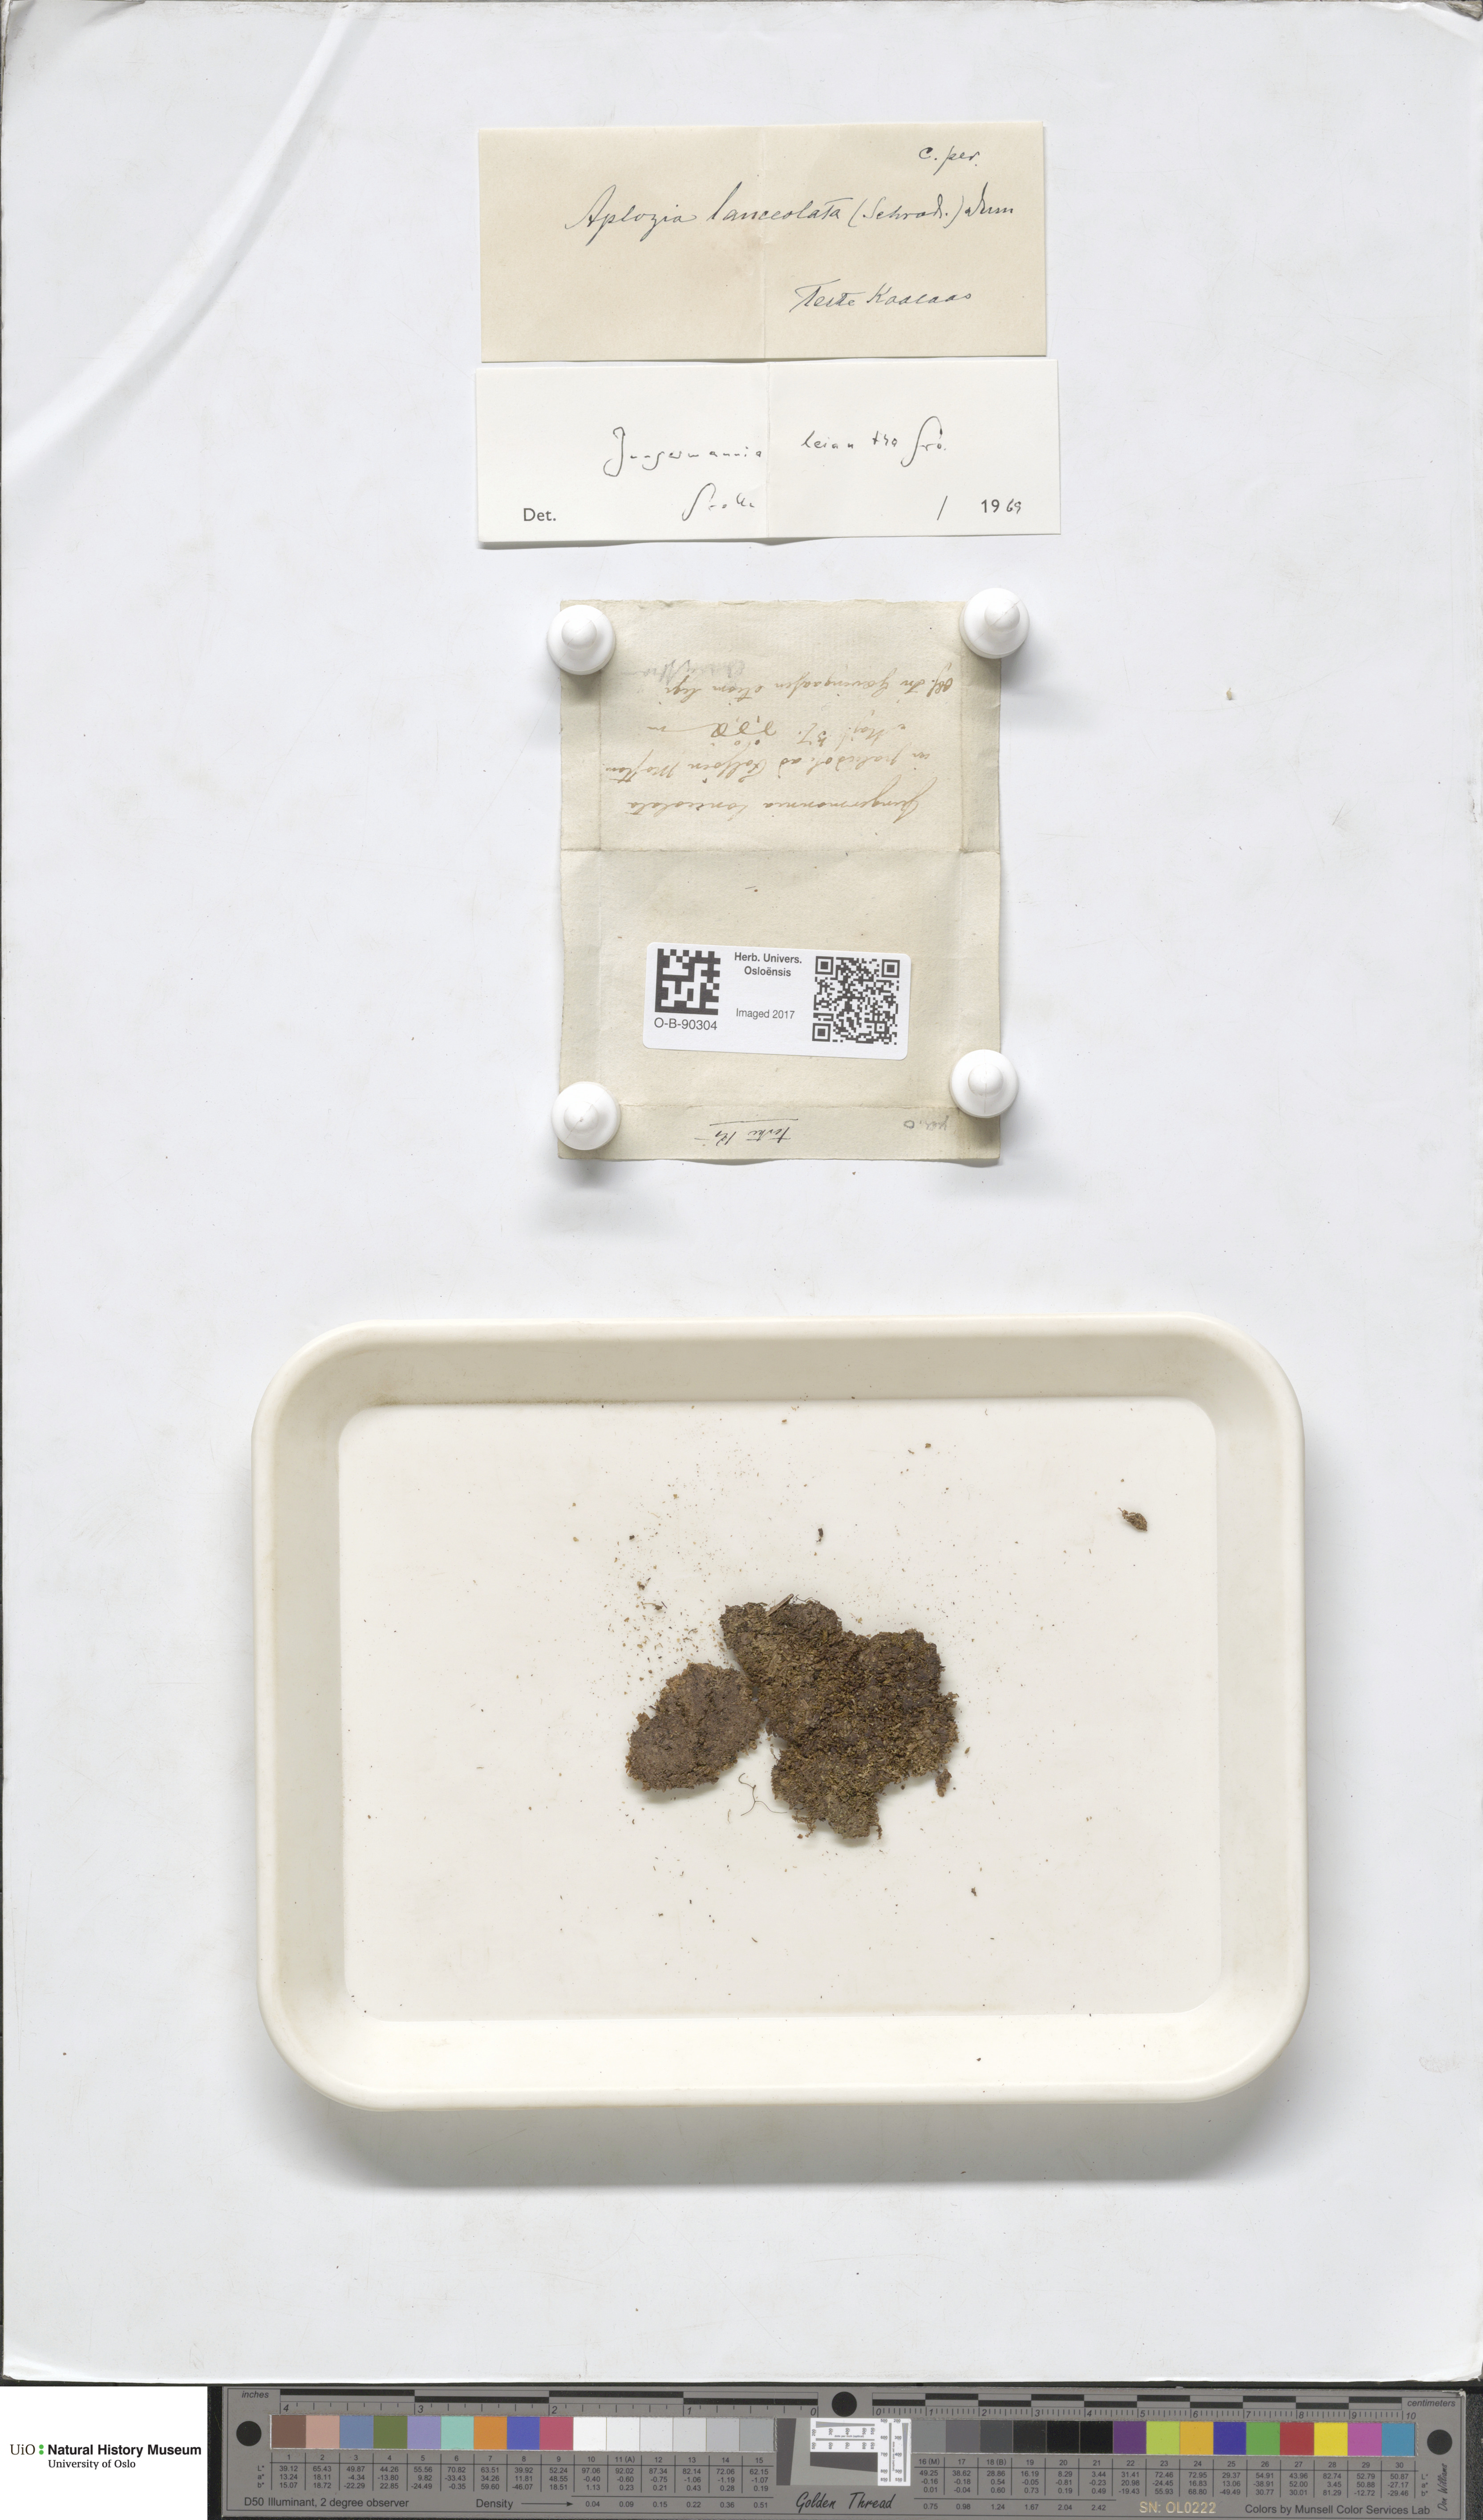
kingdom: Plantae
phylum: Marchantiophyta
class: Jungermanniopsida
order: Jungermanniales
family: Jungermanniaceae
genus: Liochlaena
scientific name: Liochlaena lanceolata
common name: Long-leaved flapwort
